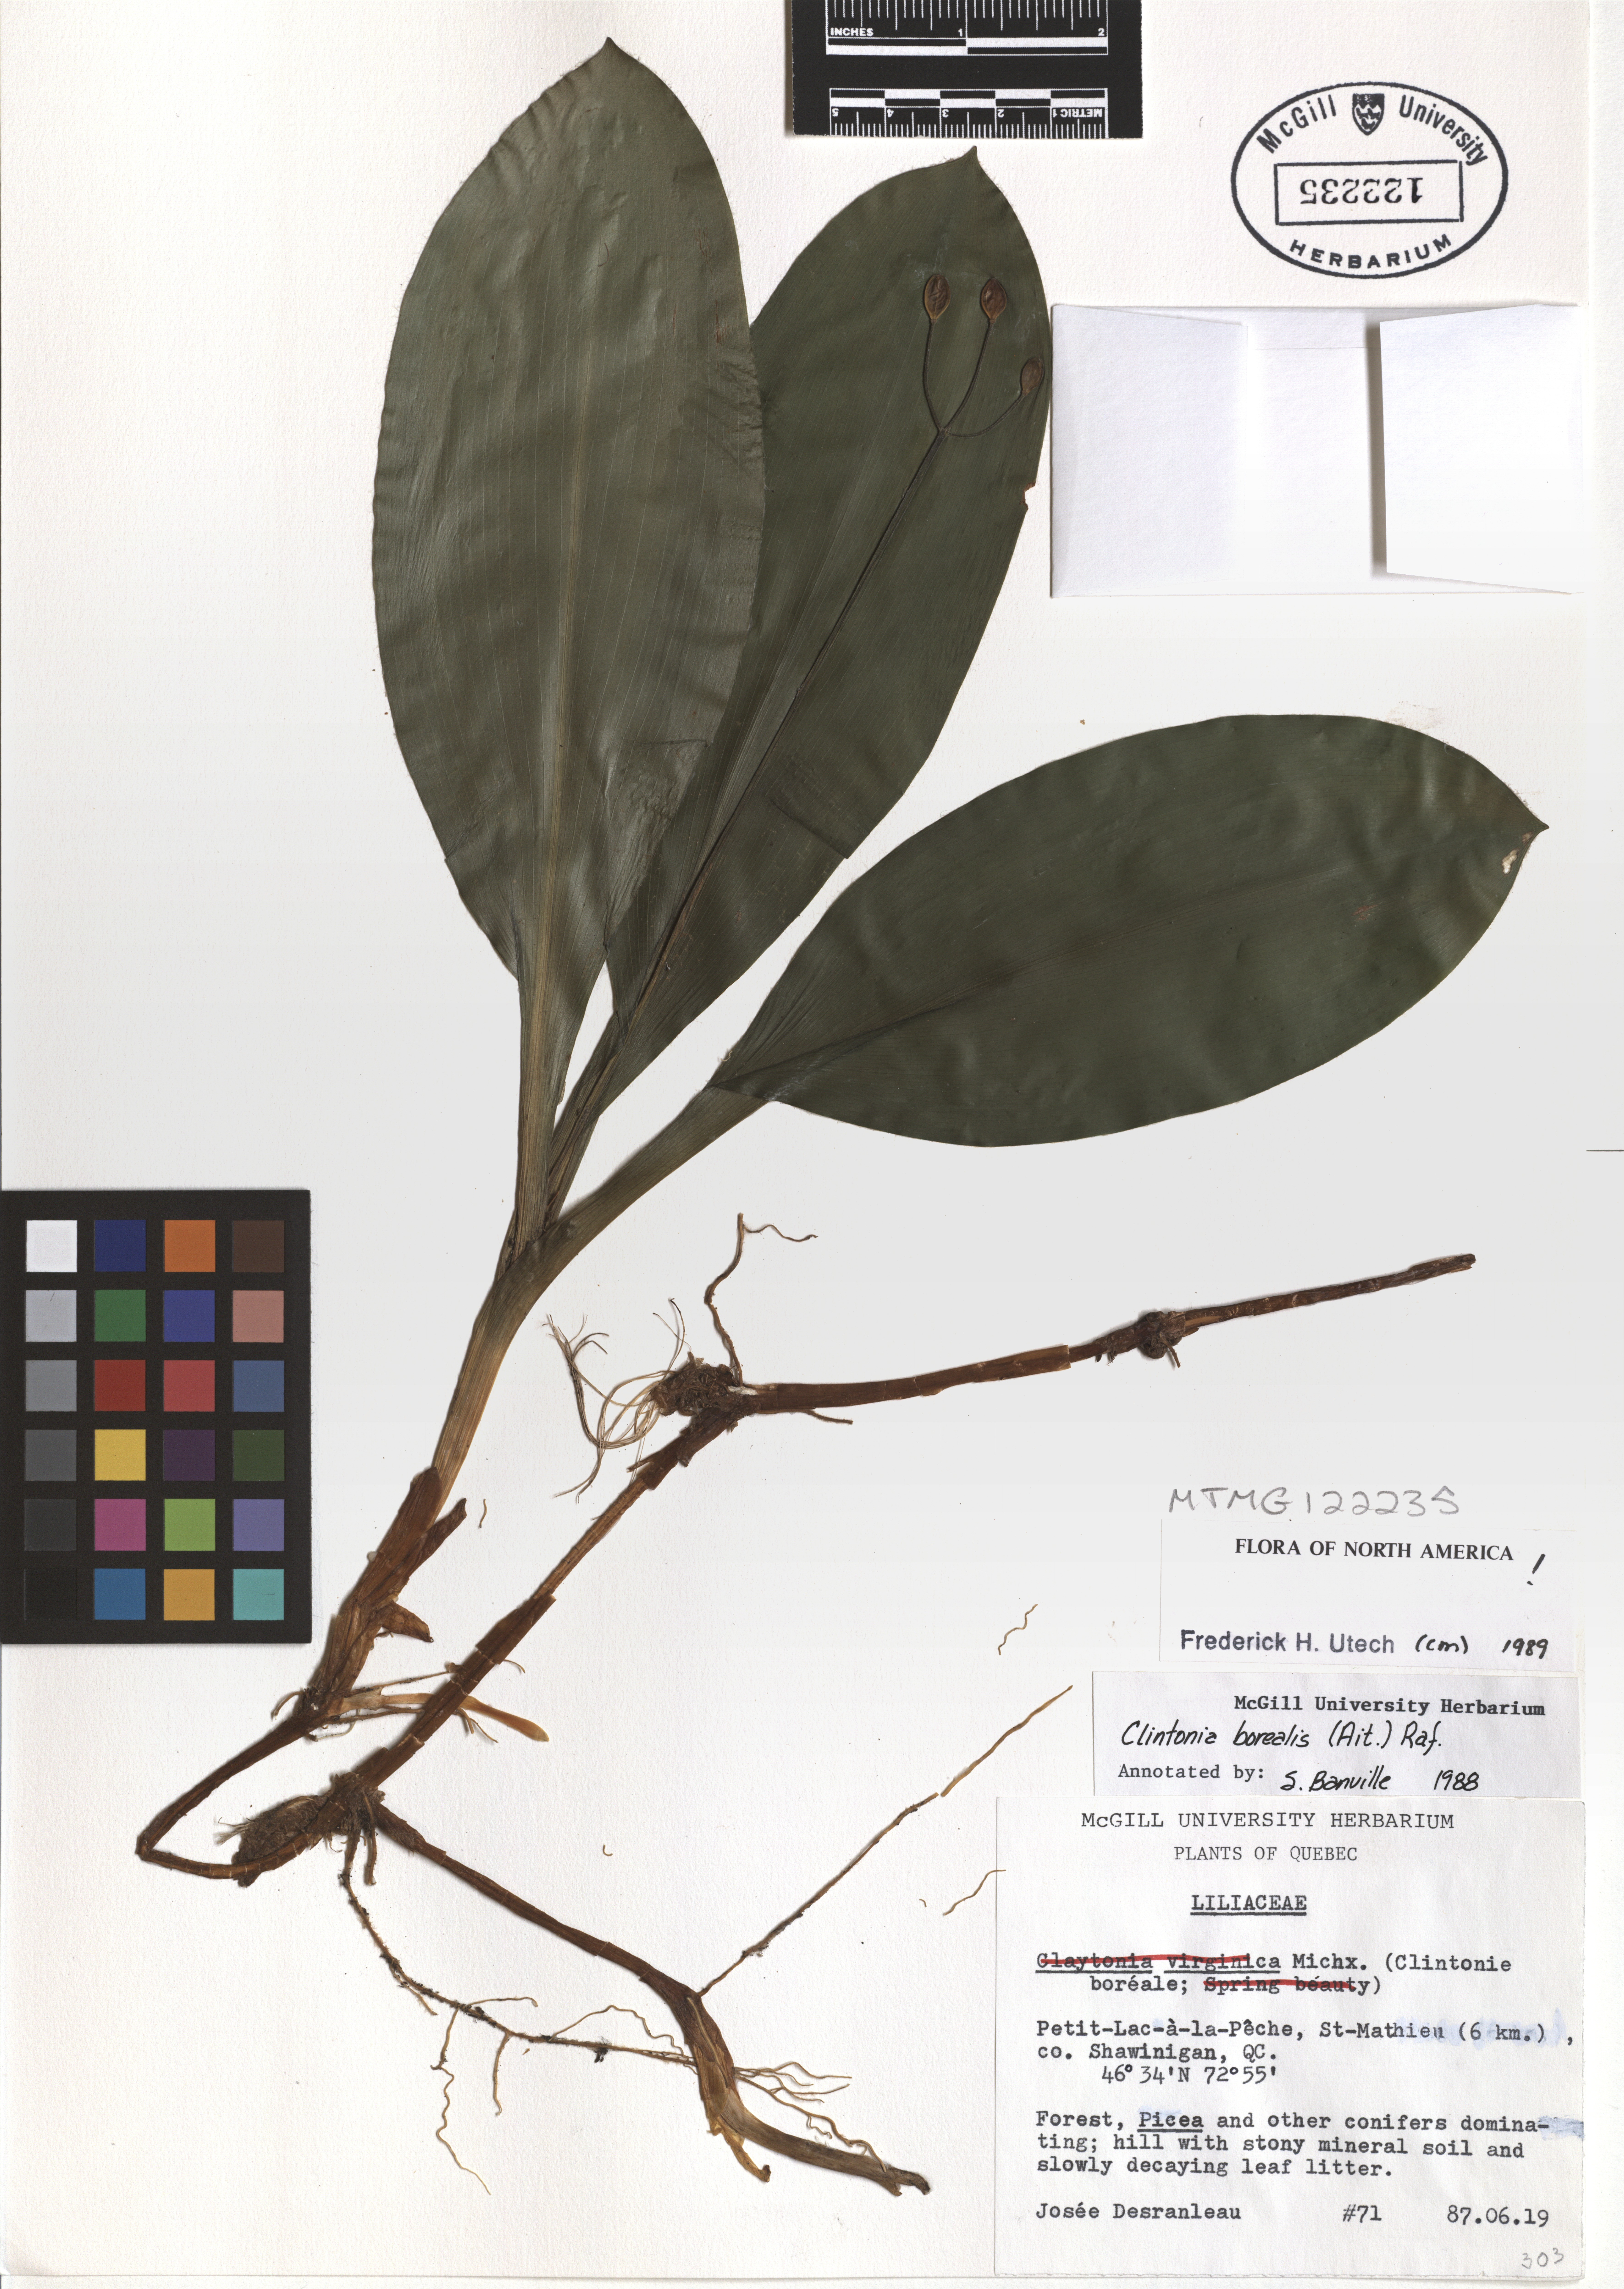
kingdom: Plantae
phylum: Tracheophyta
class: Liliopsida
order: Liliales
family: Liliaceae
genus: Clintonia
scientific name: Clintonia borealis
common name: Yellow clintonia
